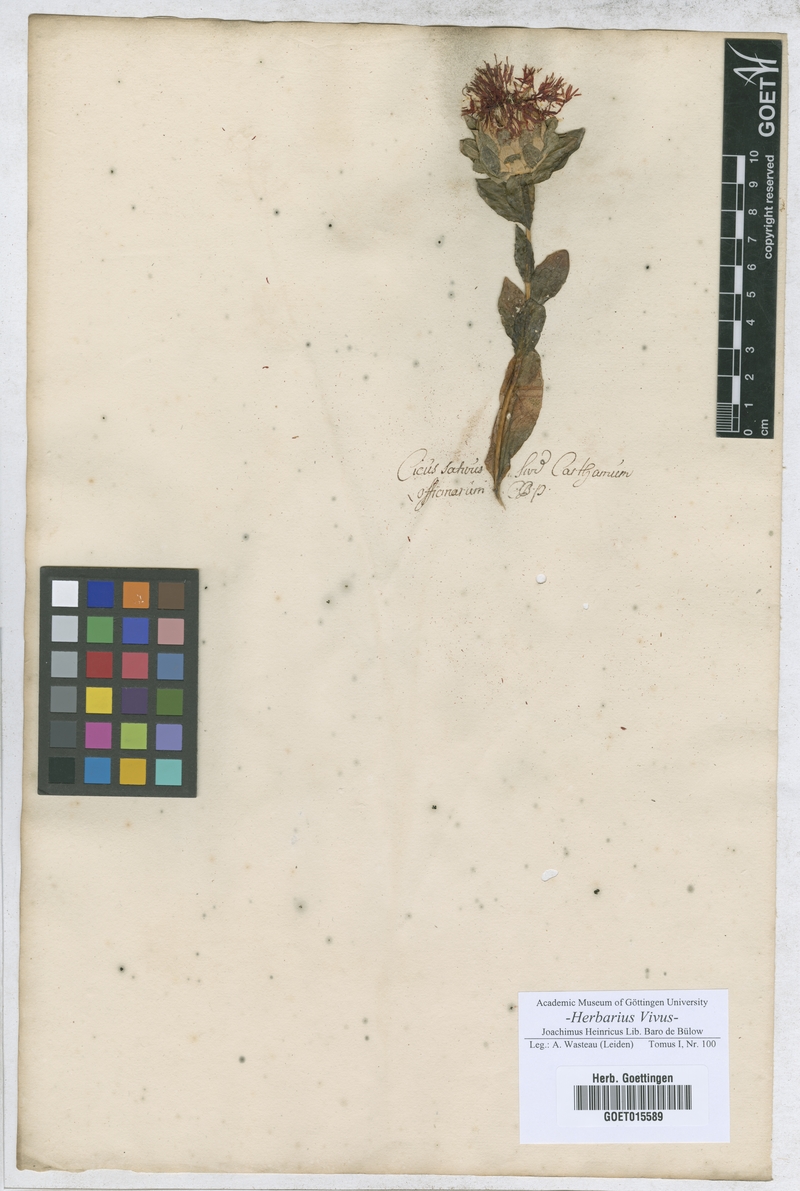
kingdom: Plantae
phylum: Tracheophyta
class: Magnoliopsida
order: Dipsacales
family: Caprifoliaceae
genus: Dipsacus
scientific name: Dipsacus sativus
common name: Fuller's teasel
